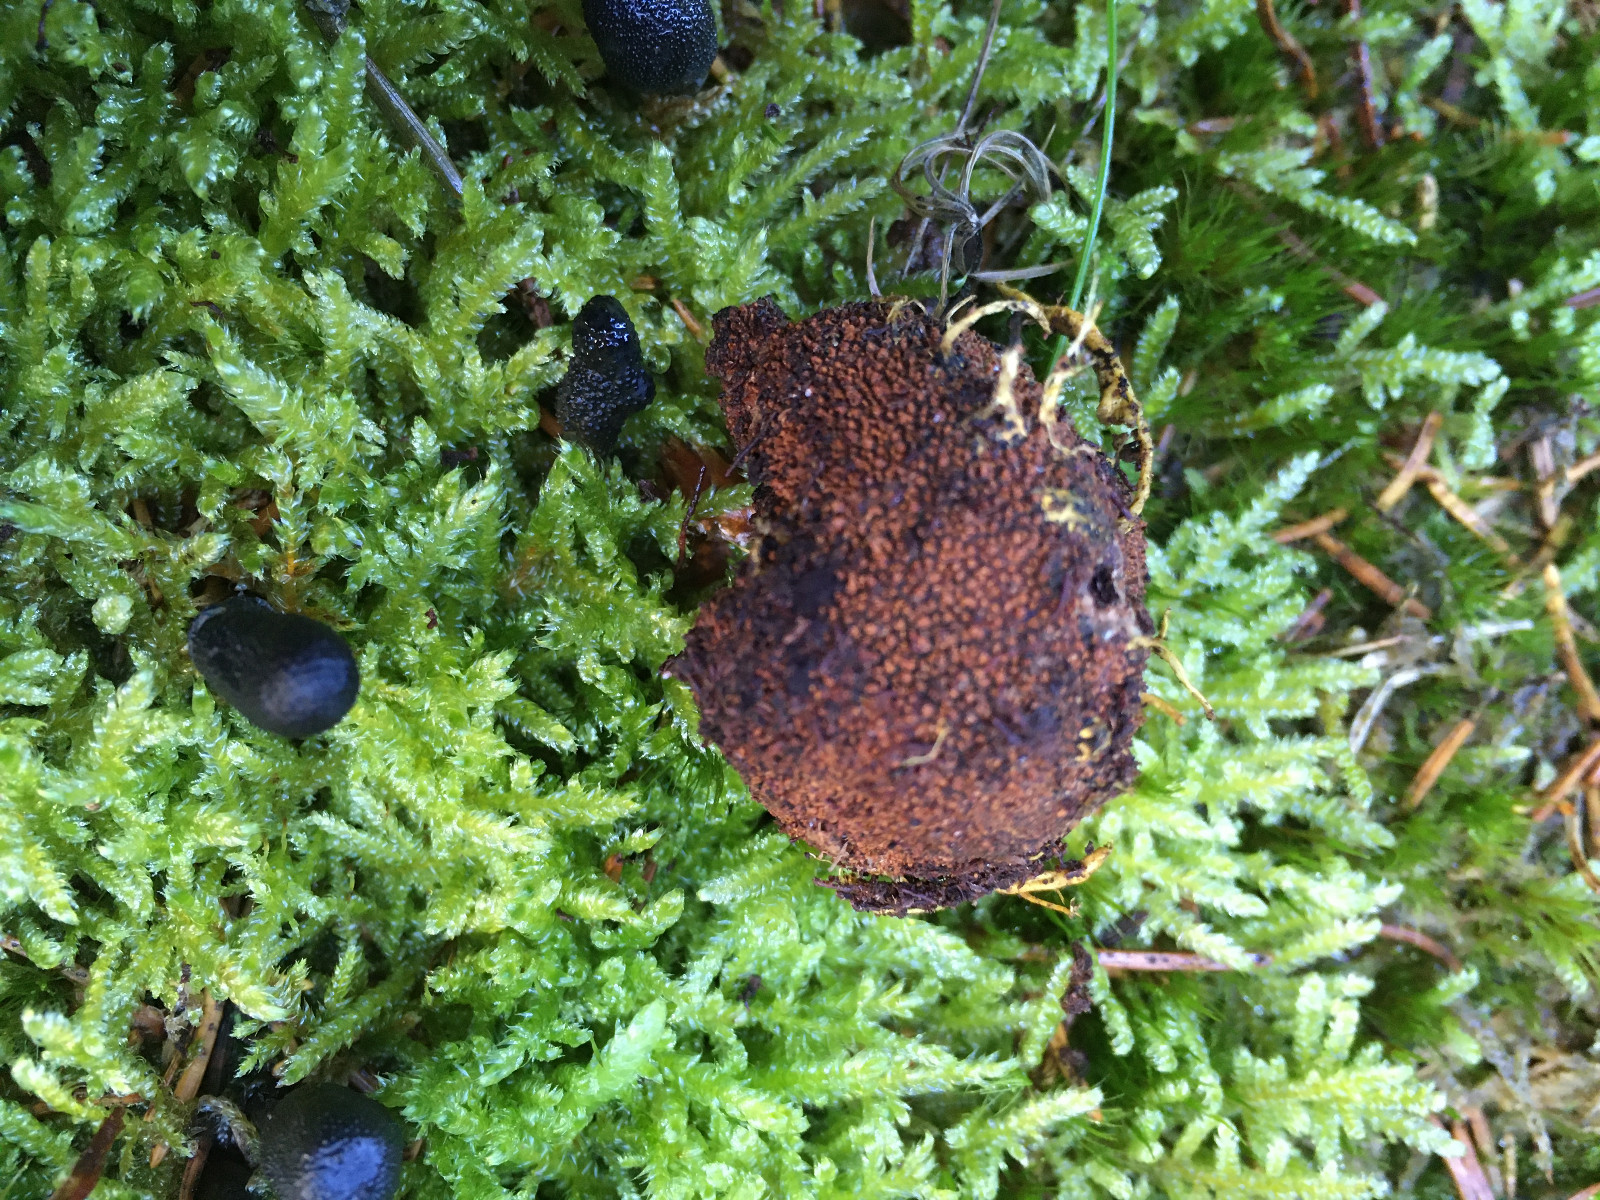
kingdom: Fungi
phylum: Ascomycota
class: Eurotiomycetes
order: Eurotiales
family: Elaphomycetaceae
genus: Elaphomyces
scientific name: Elaphomyces
